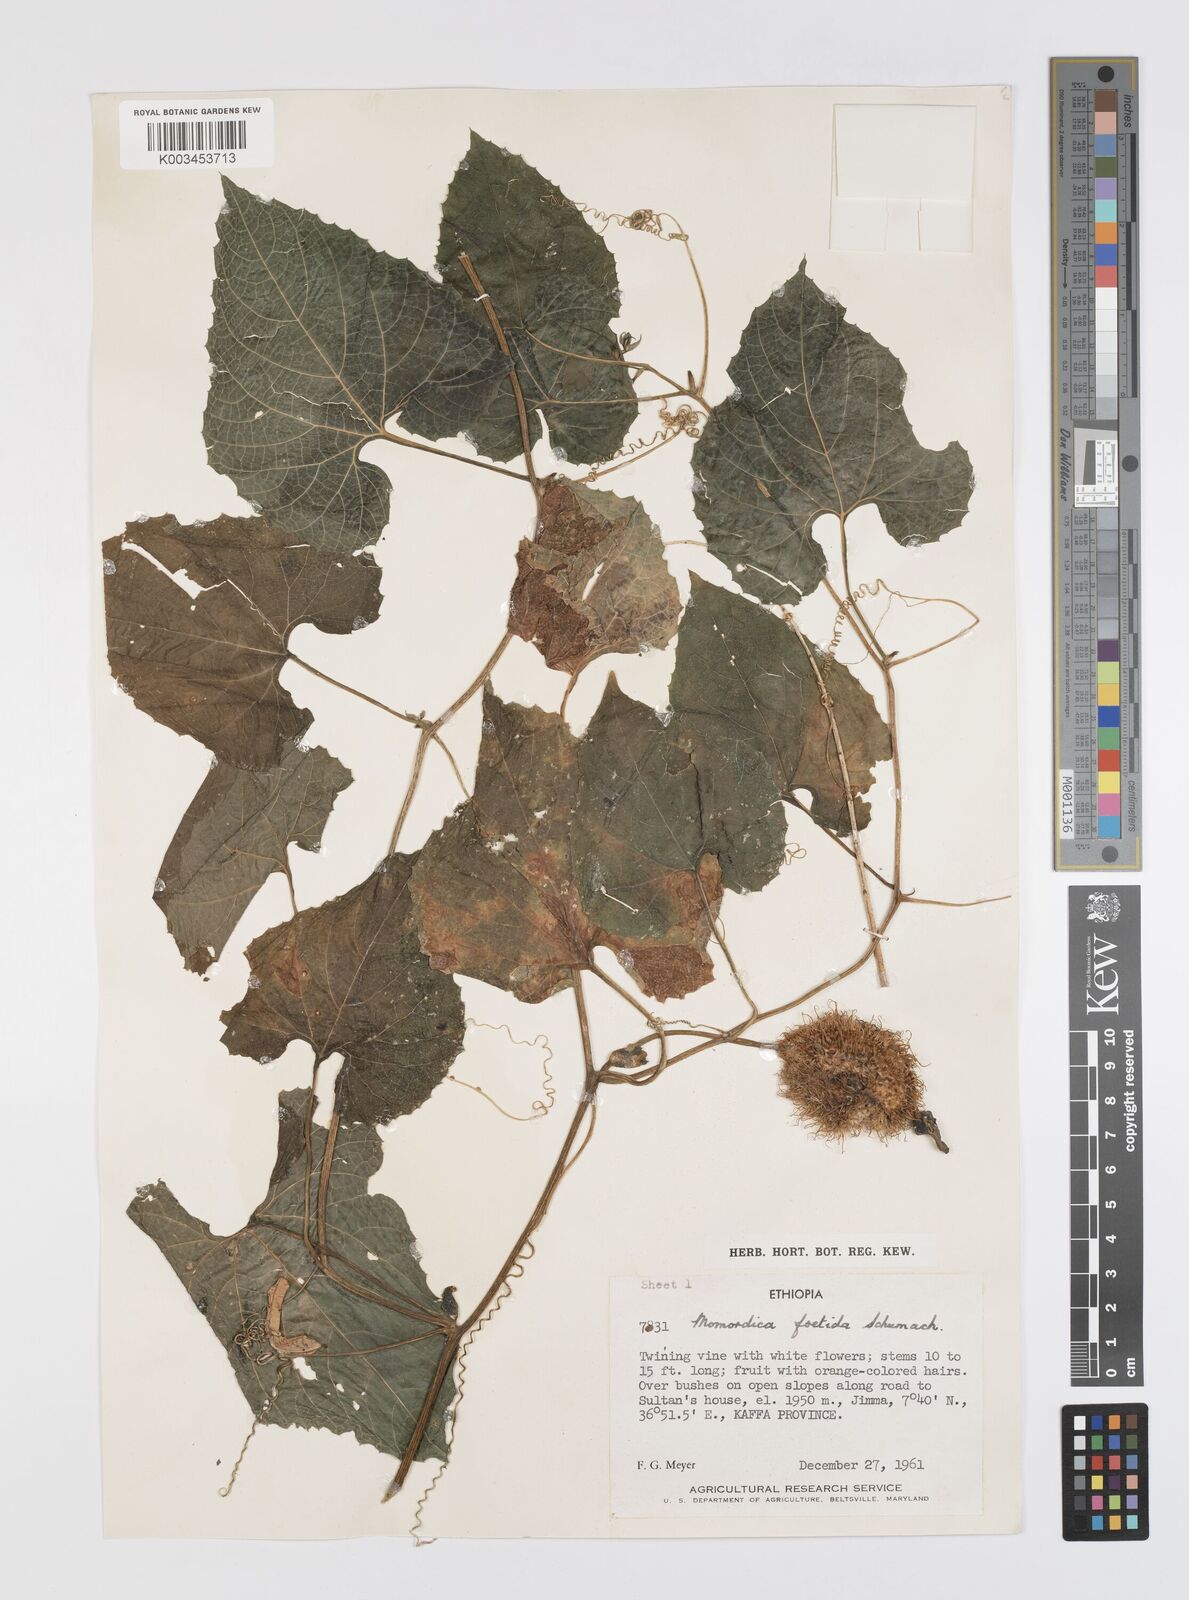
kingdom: Plantae
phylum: Tracheophyta
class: Magnoliopsida
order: Cucurbitales
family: Cucurbitaceae
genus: Momordica
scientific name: Momordica foetida
